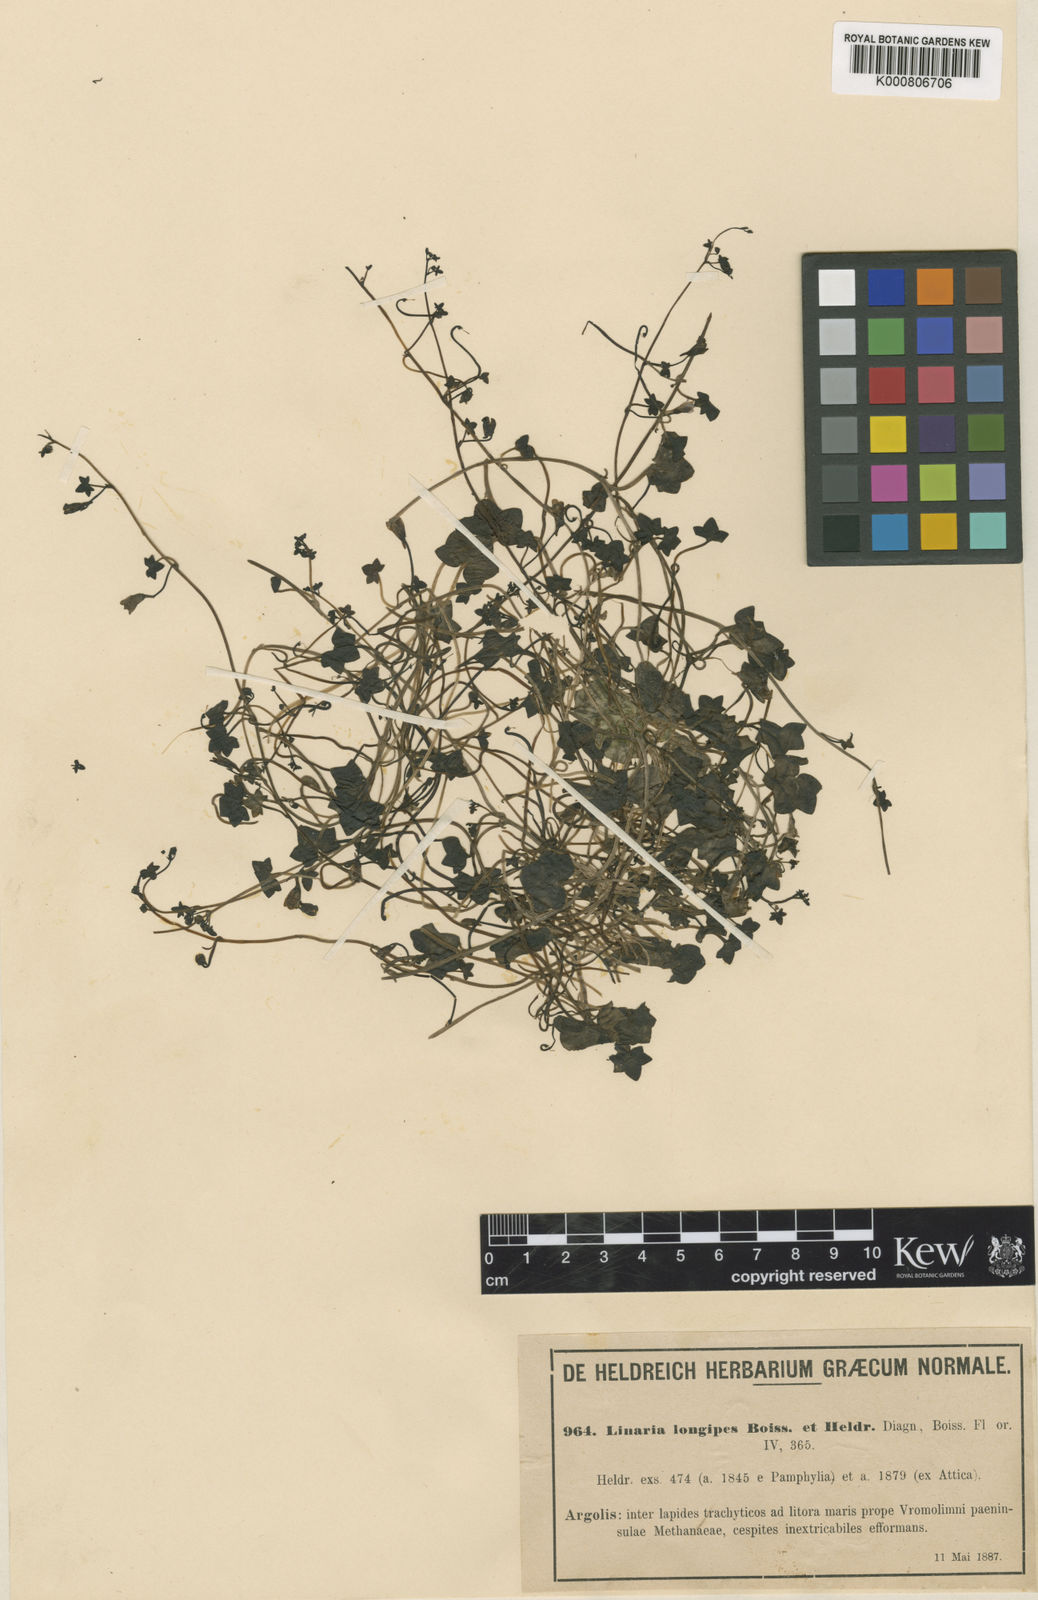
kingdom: Plantae
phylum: Tracheophyta
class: Magnoliopsida
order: Lamiales
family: Plantaginaceae
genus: Cymbalaria
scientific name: Cymbalaria longipes
